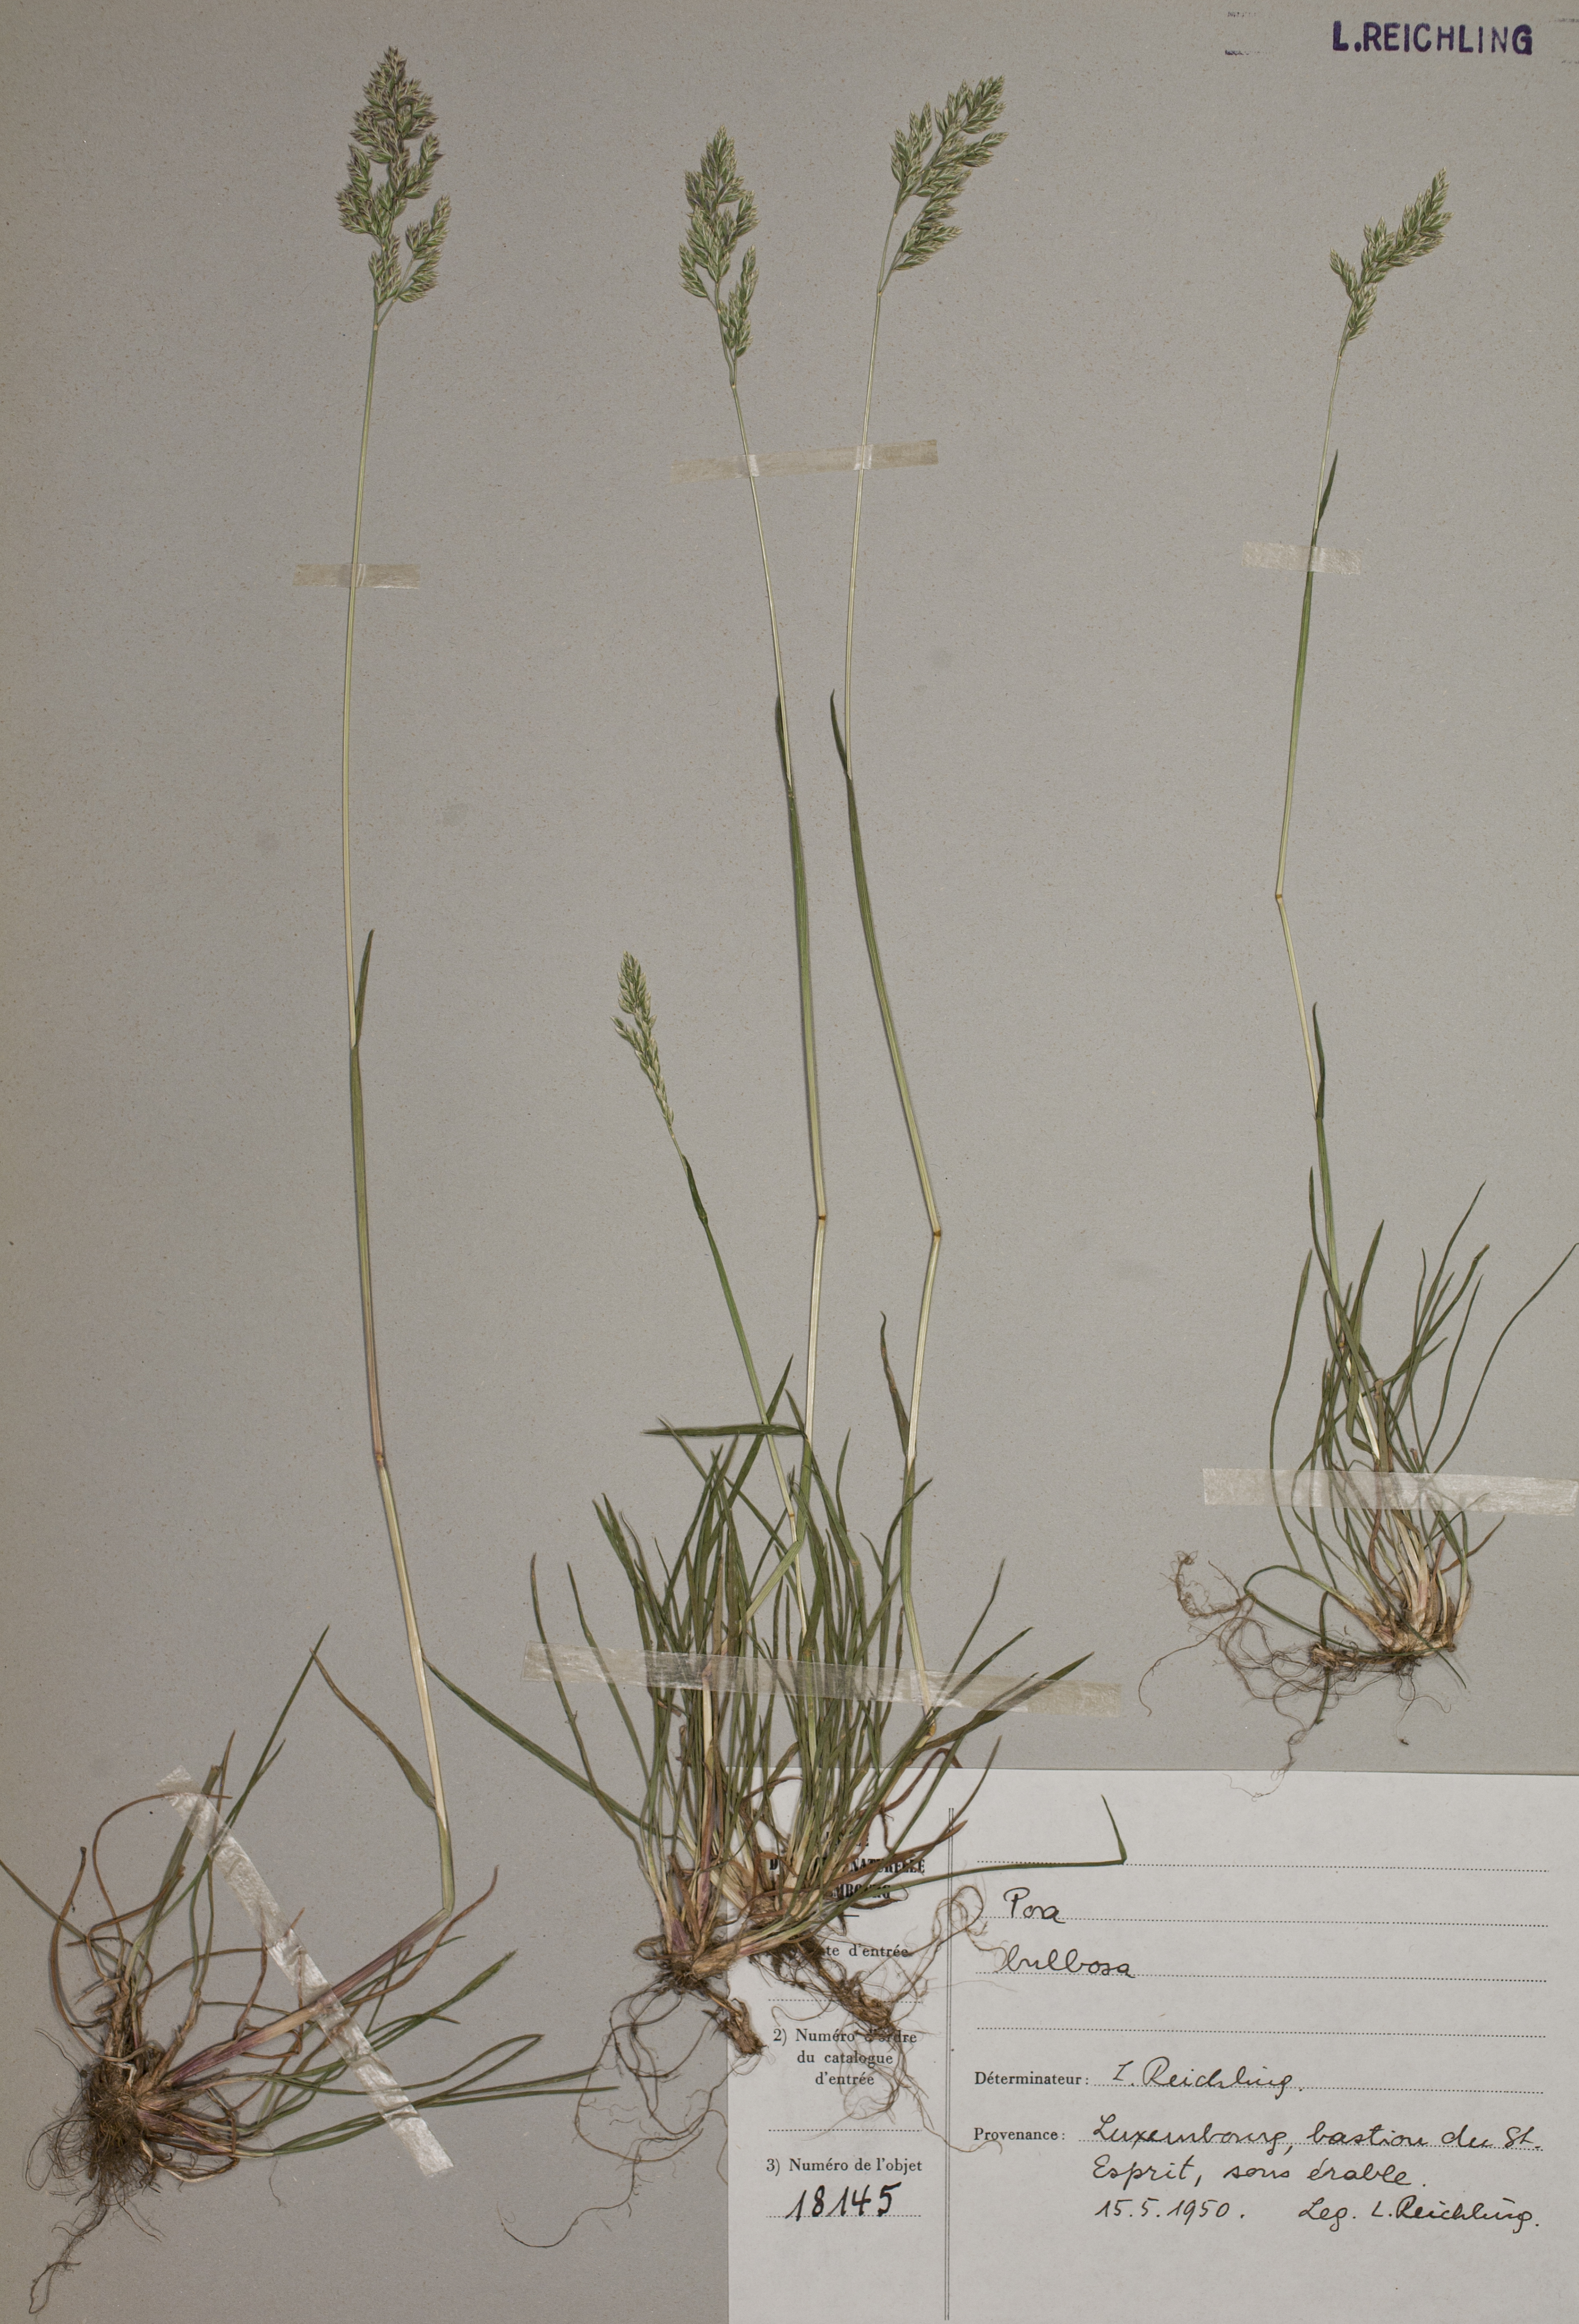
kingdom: Plantae
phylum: Tracheophyta
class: Liliopsida
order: Poales
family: Poaceae
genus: Poa
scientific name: Poa bulbosa
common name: Bulbous bluegrass
